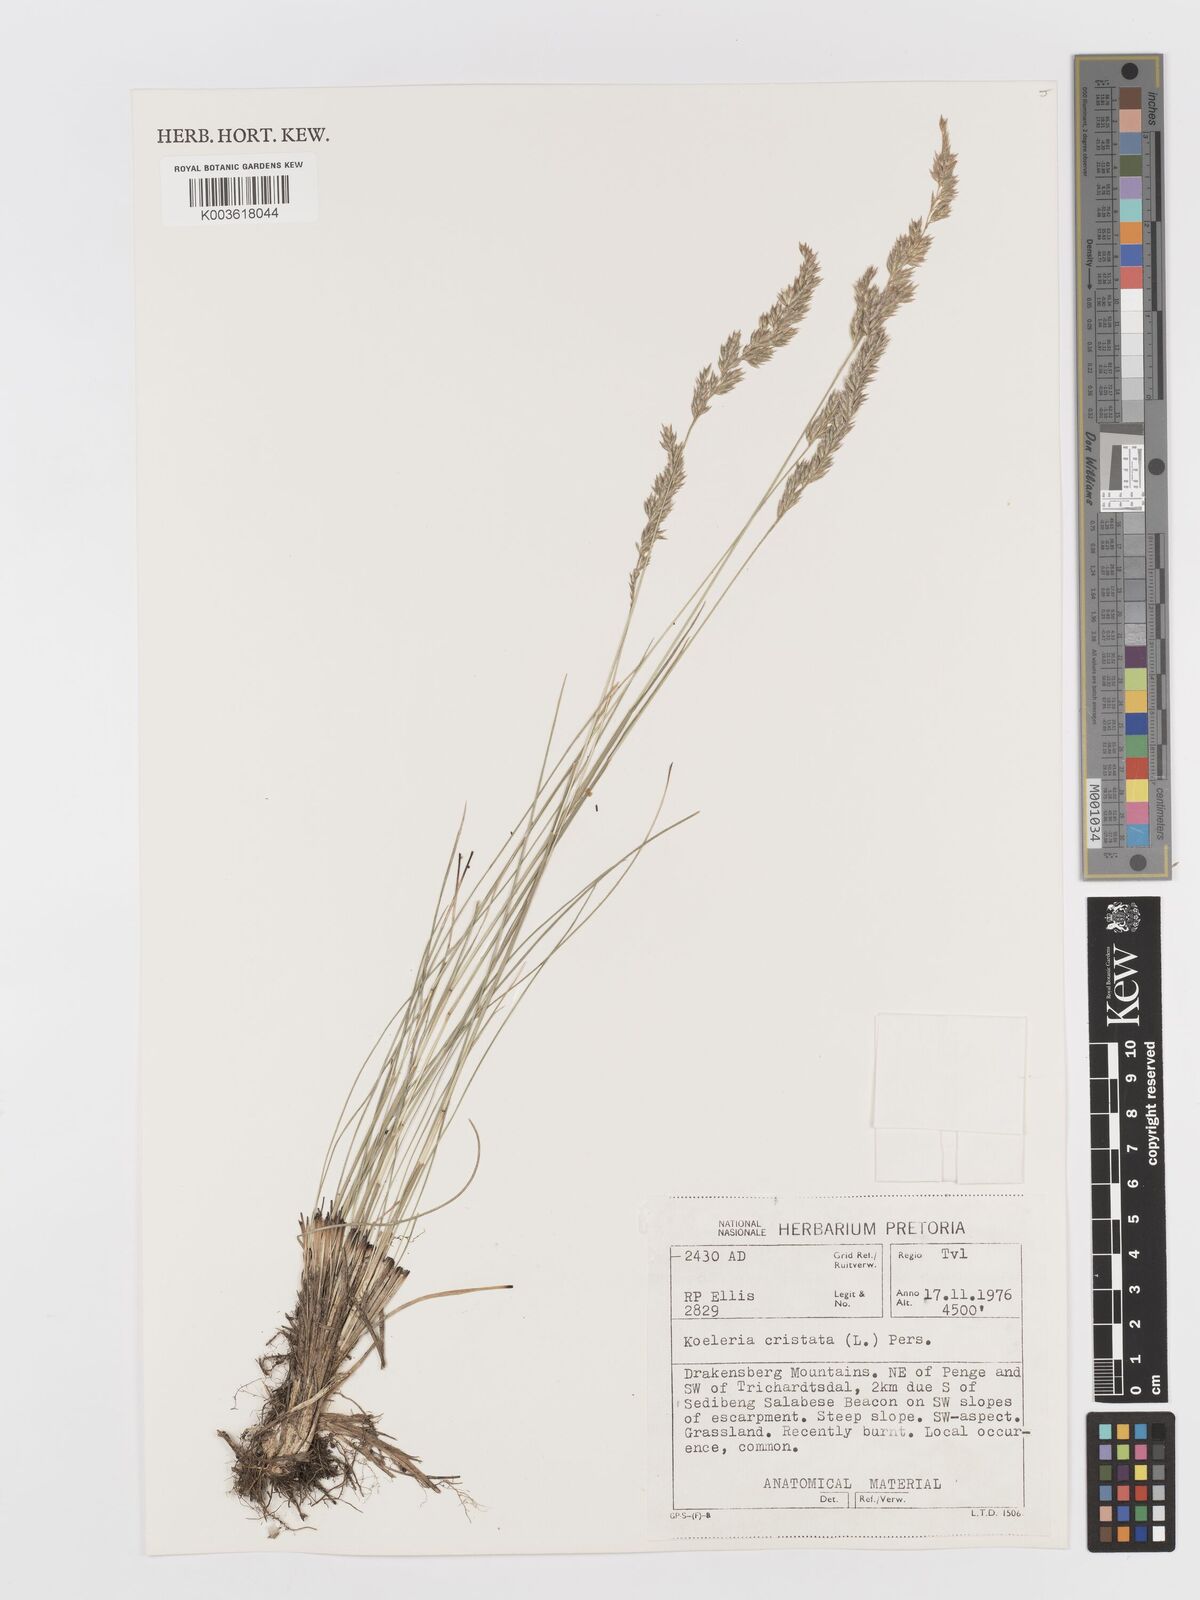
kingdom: Plantae
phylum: Tracheophyta
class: Liliopsida
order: Poales
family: Poaceae
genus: Koeleria
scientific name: Koeleria capensis
